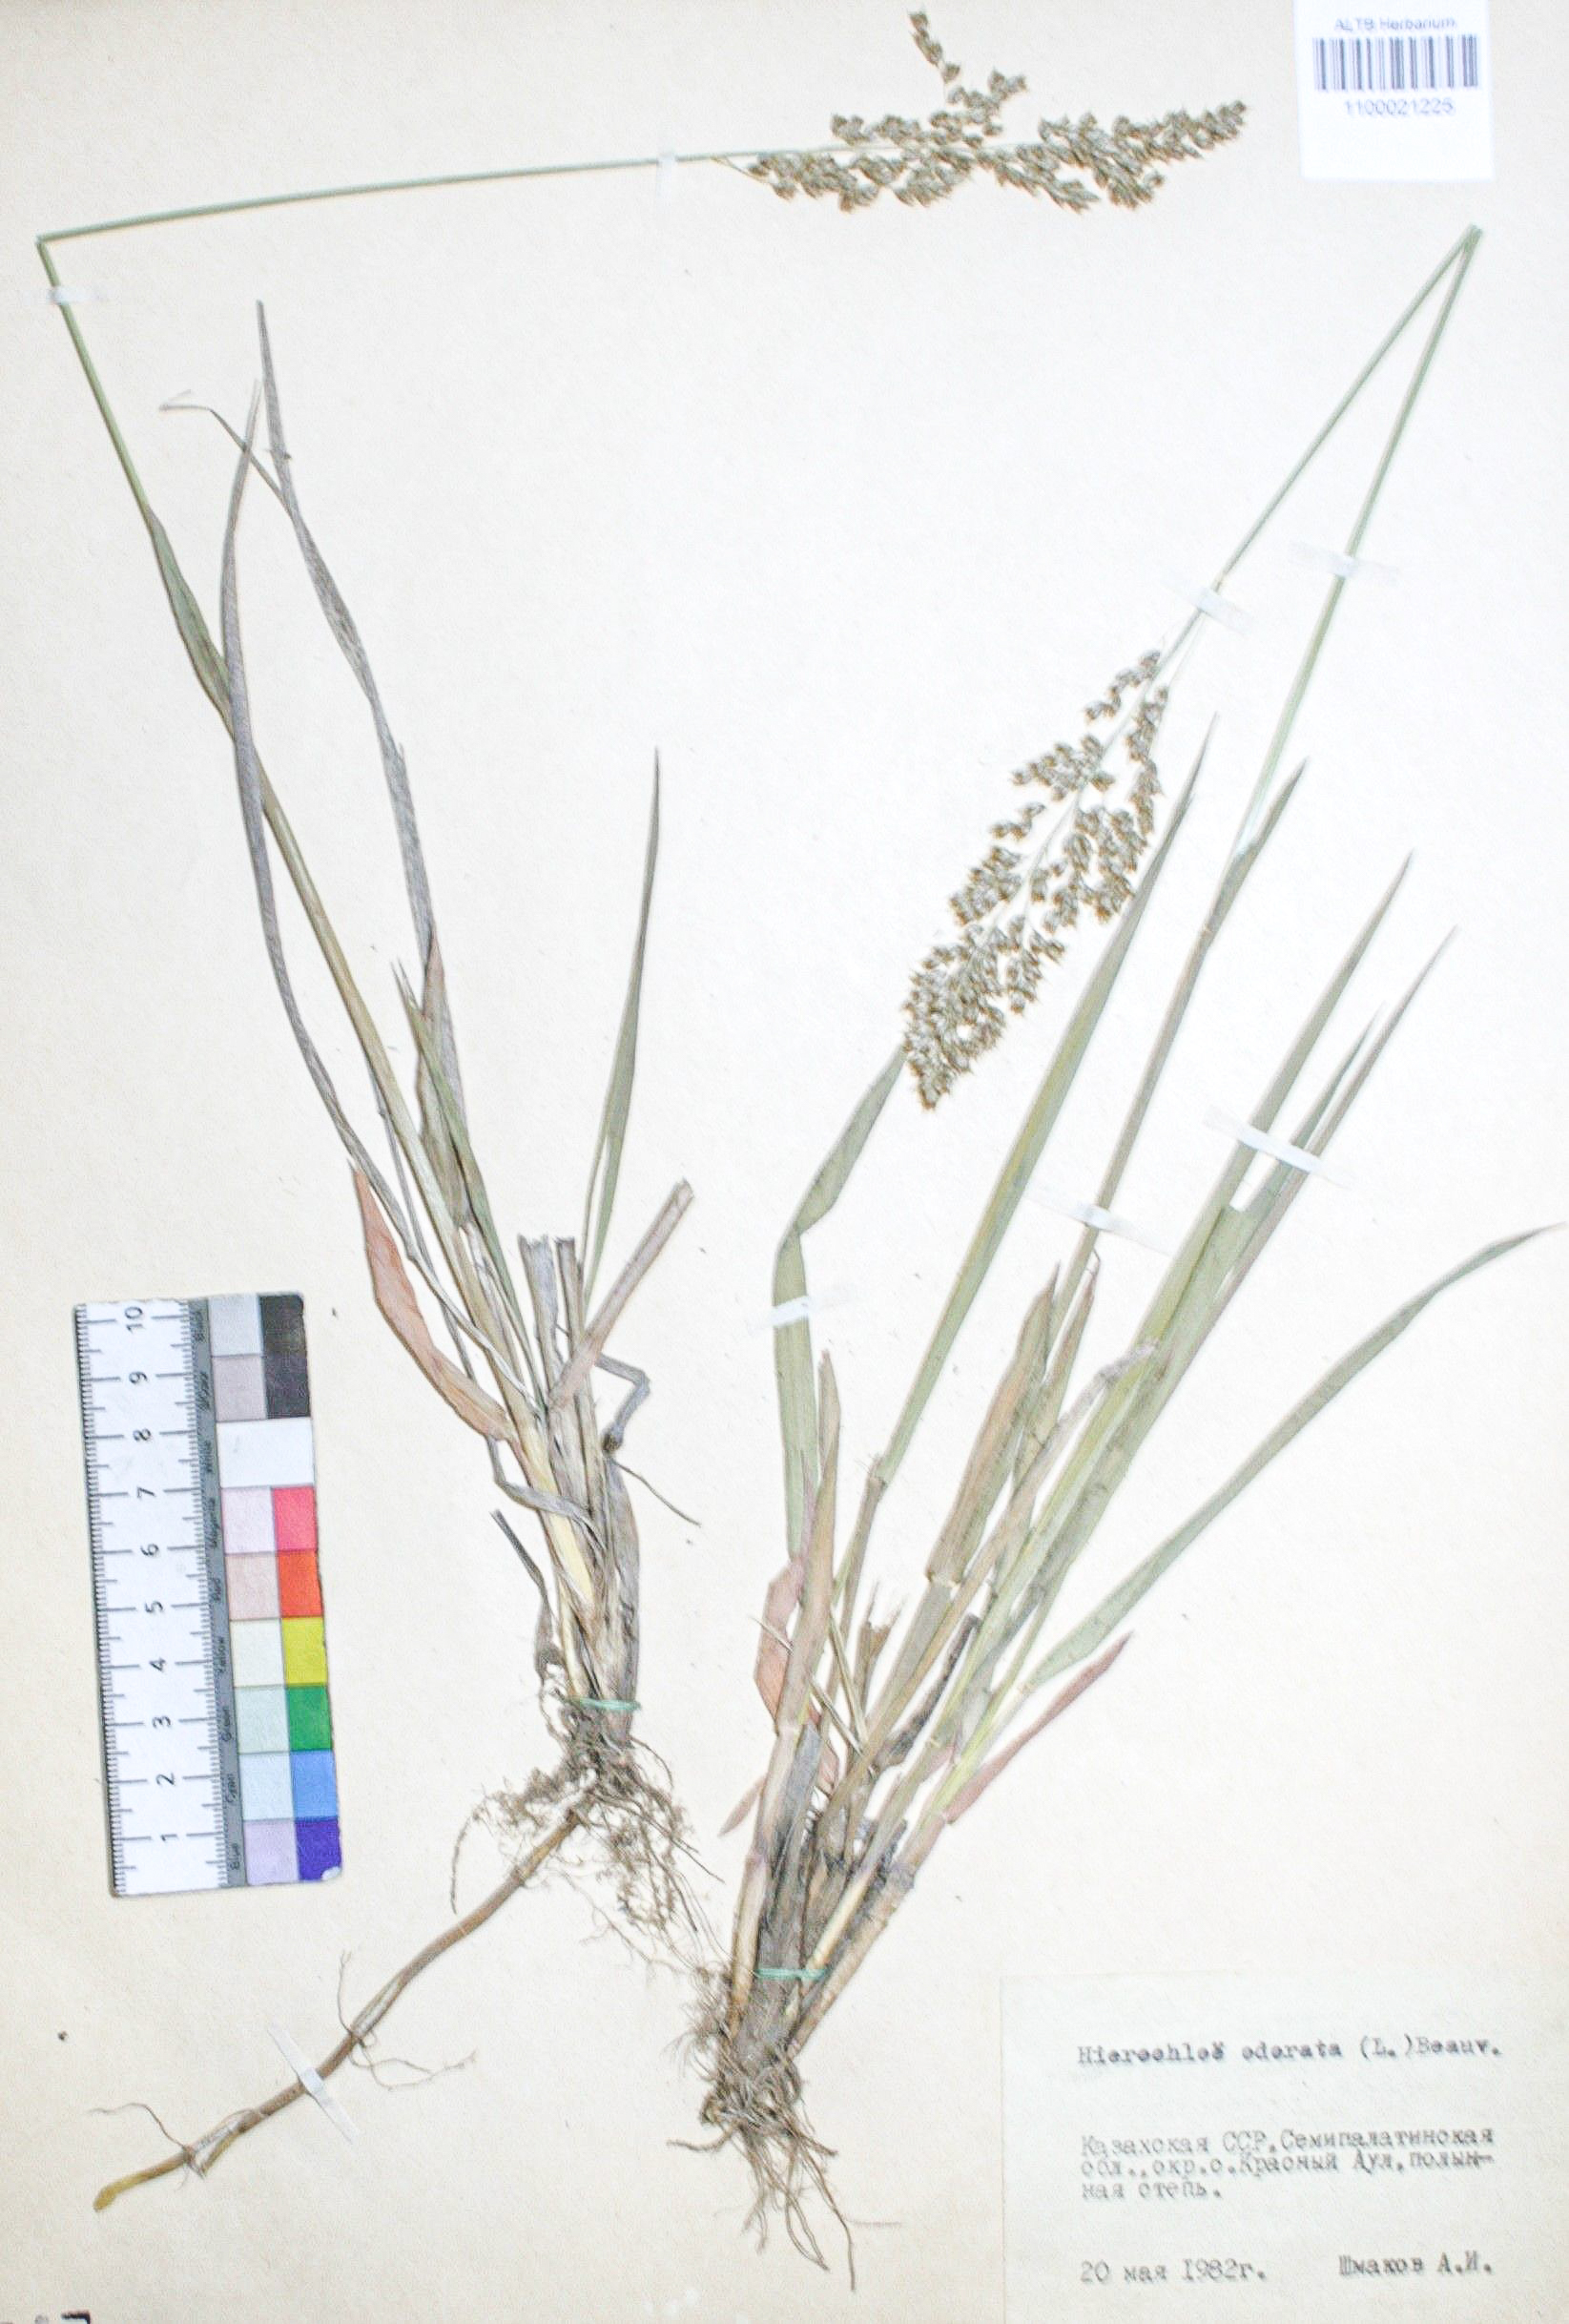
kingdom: Plantae
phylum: Tracheophyta
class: Liliopsida
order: Poales
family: Poaceae
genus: Anthoxanthum
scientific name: Anthoxanthum nitens
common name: Holy grass
